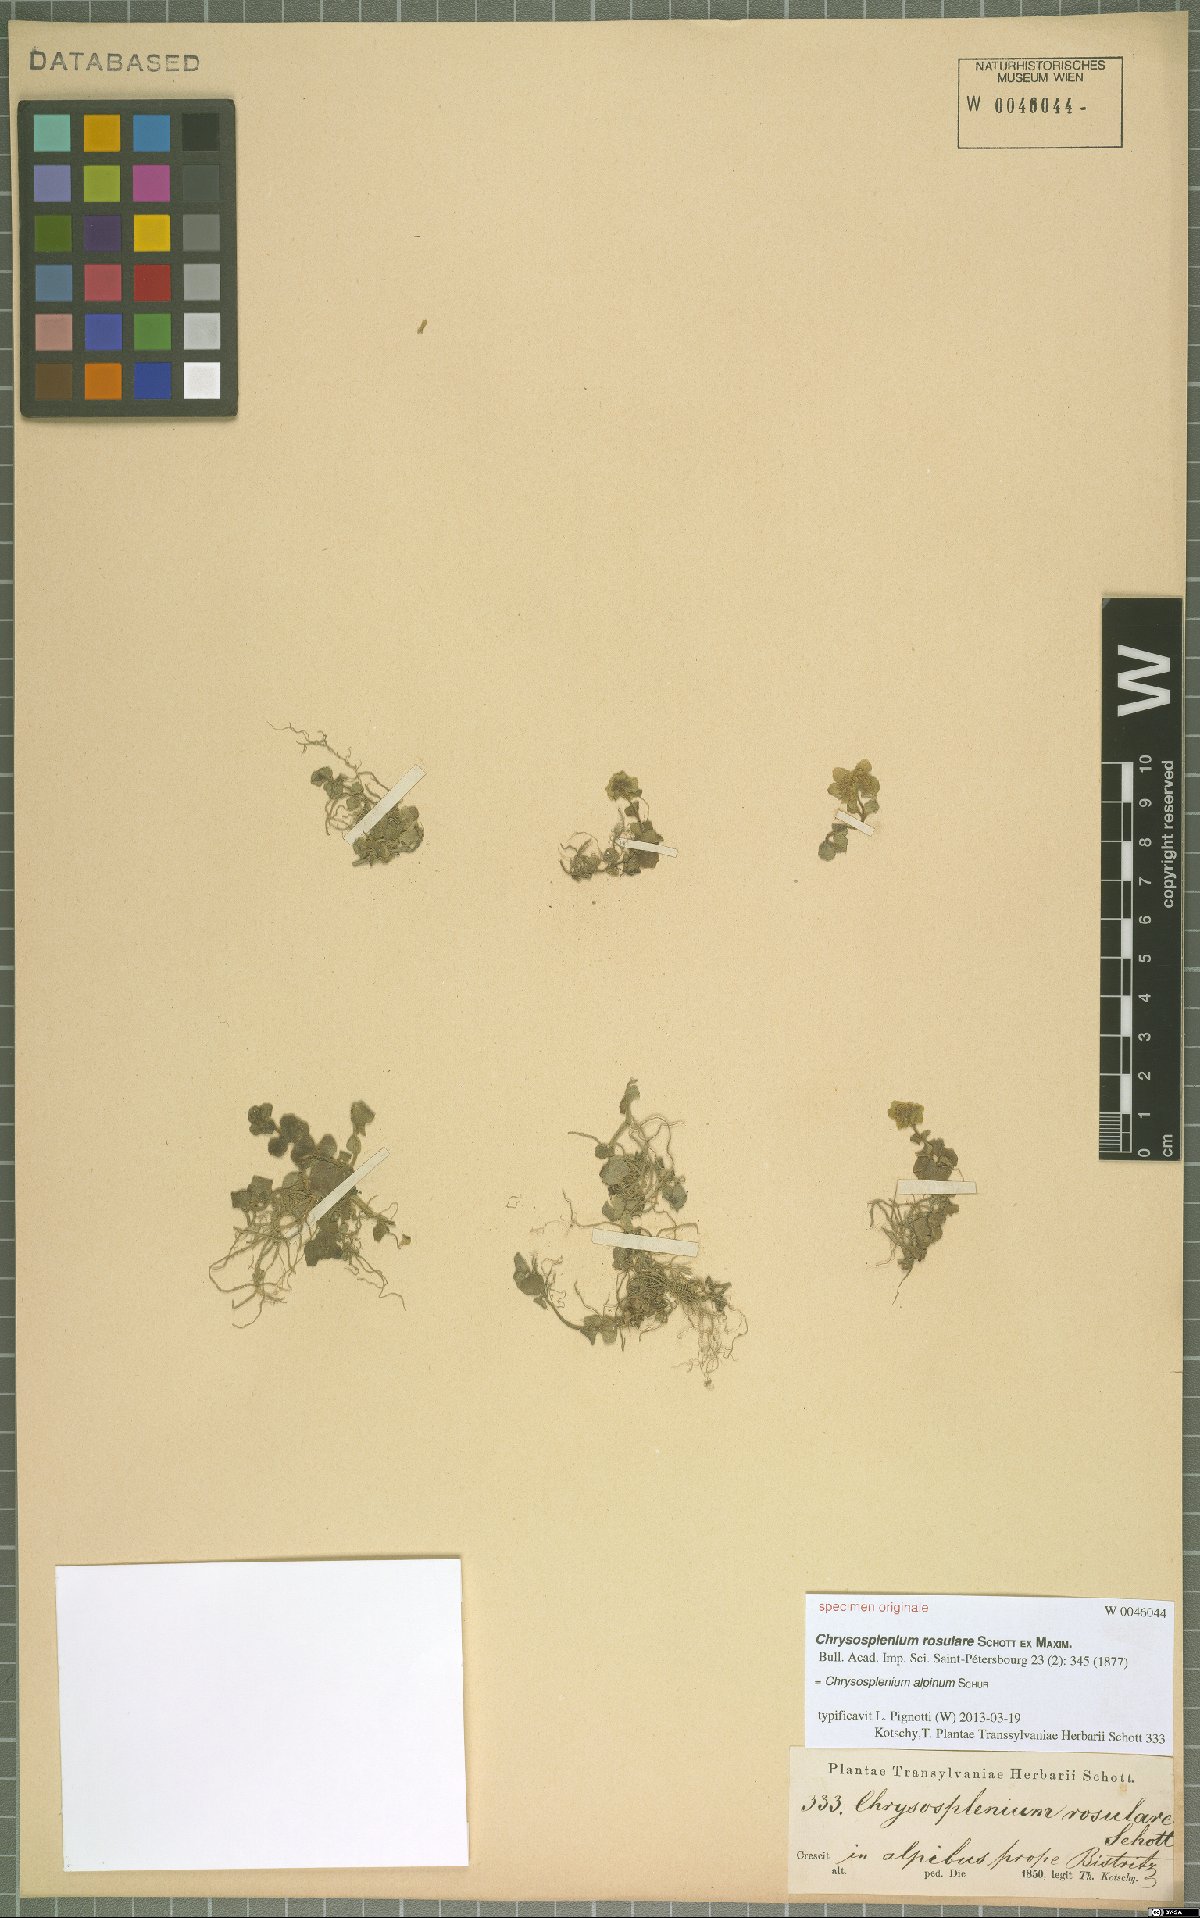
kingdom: Plantae
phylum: Tracheophyta
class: Magnoliopsida
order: Saxifragales
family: Saxifragaceae
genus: Chrysosplenium
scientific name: Chrysosplenium alpinum
